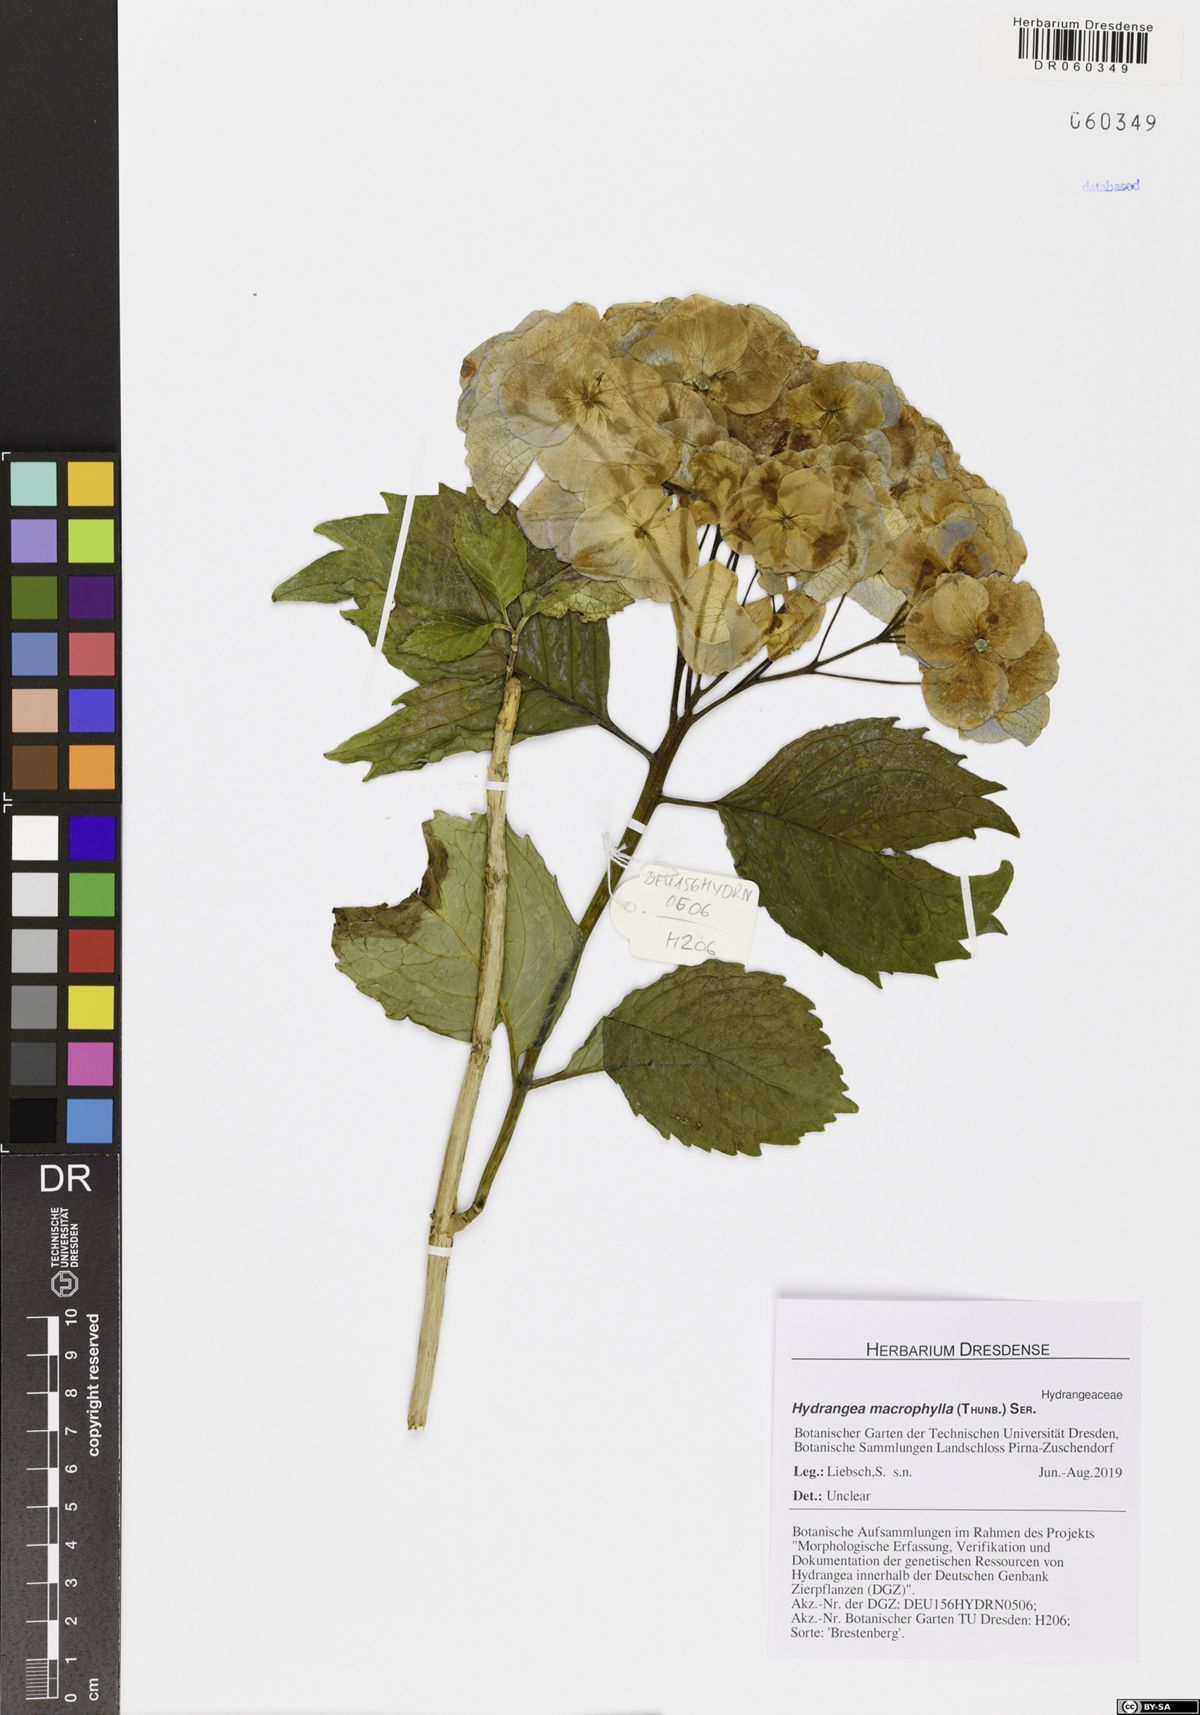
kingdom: Plantae
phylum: Tracheophyta
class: Magnoliopsida
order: Cornales
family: Hydrangeaceae
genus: Hydrangea
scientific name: Hydrangea macrophylla
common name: Hydrangea
